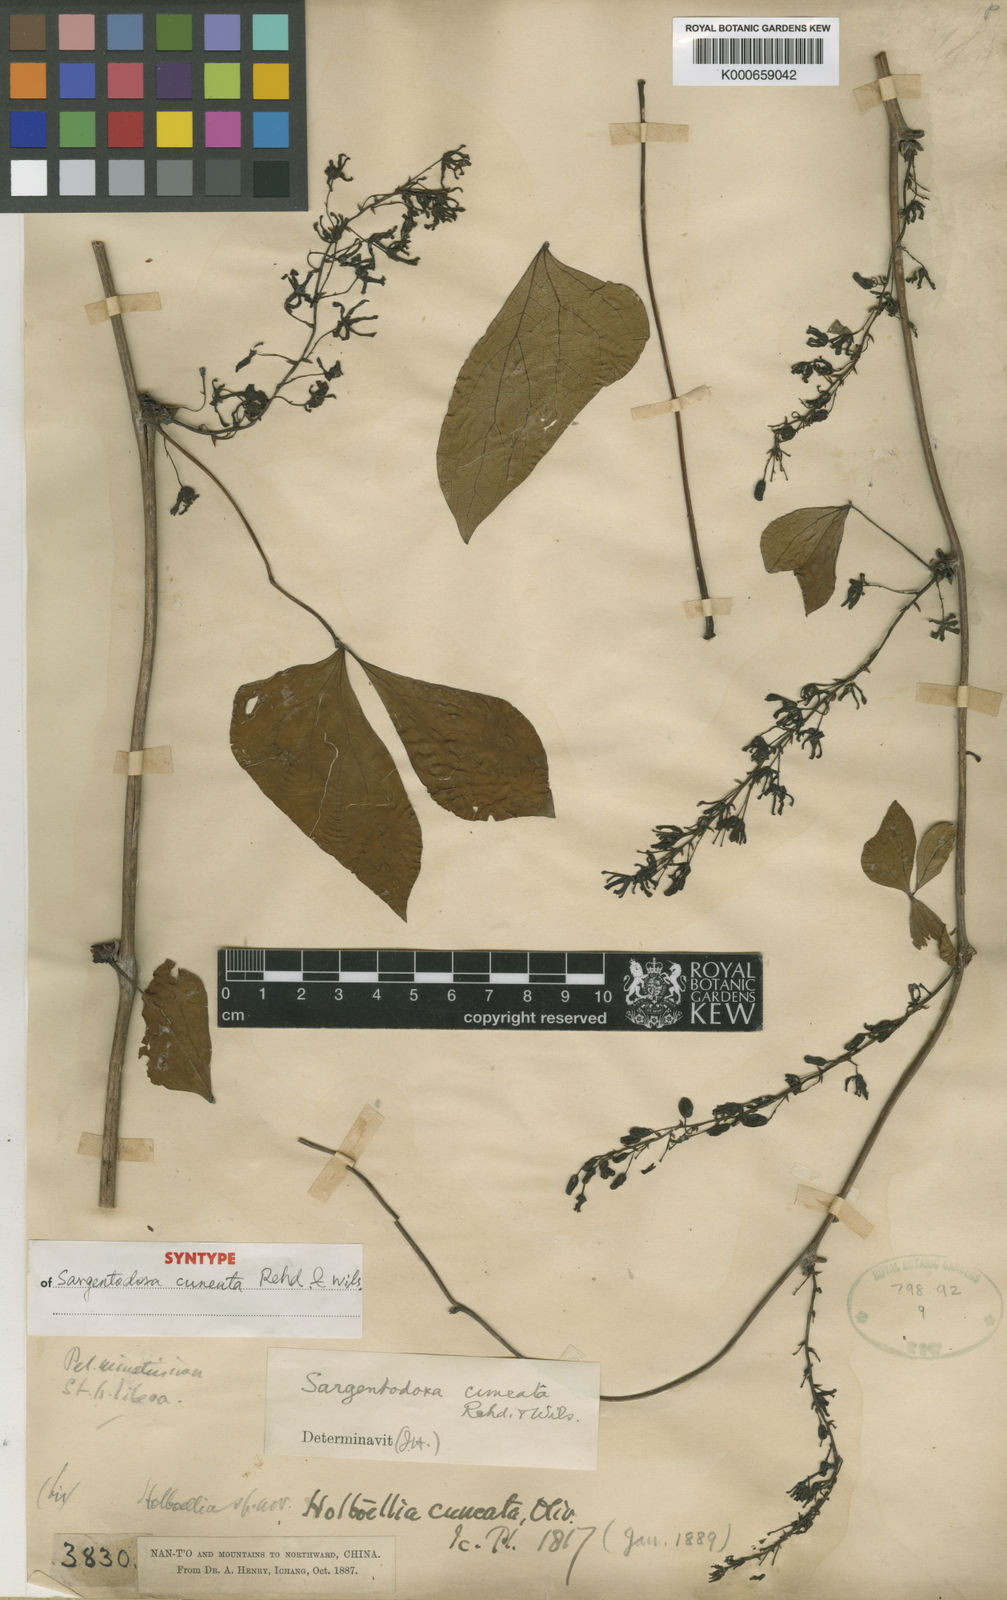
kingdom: Plantae
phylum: Tracheophyta
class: Magnoliopsida
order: Ranunculales
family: Lardizabalaceae
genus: Sargentodoxa
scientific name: Sargentodoxa cuneata
